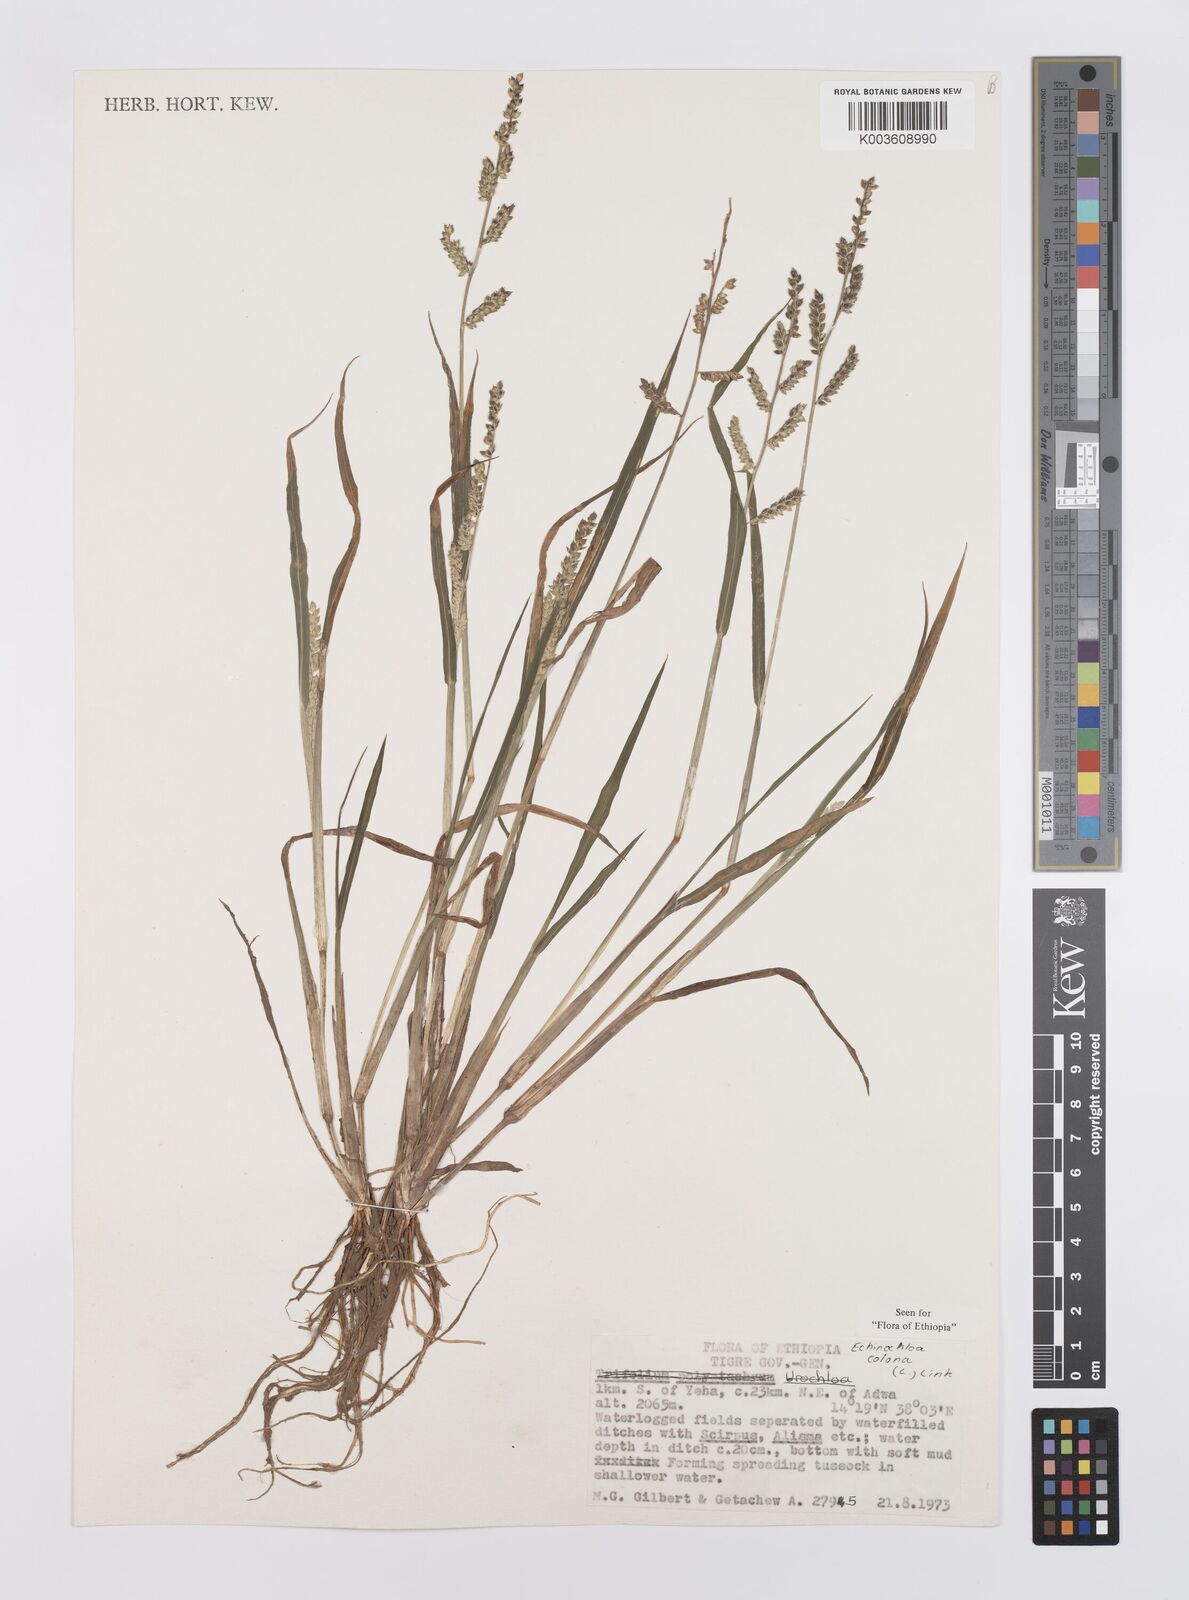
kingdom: Plantae
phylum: Tracheophyta
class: Liliopsida
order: Poales
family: Poaceae
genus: Echinochloa
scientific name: Echinochloa colonum
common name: Jungle rice
